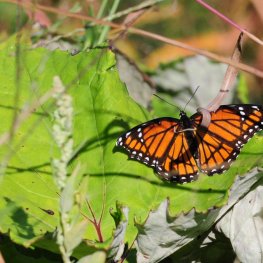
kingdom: Animalia
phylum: Arthropoda
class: Insecta
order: Lepidoptera
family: Nymphalidae
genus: Limenitis
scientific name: Limenitis archippus
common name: Viceroy
